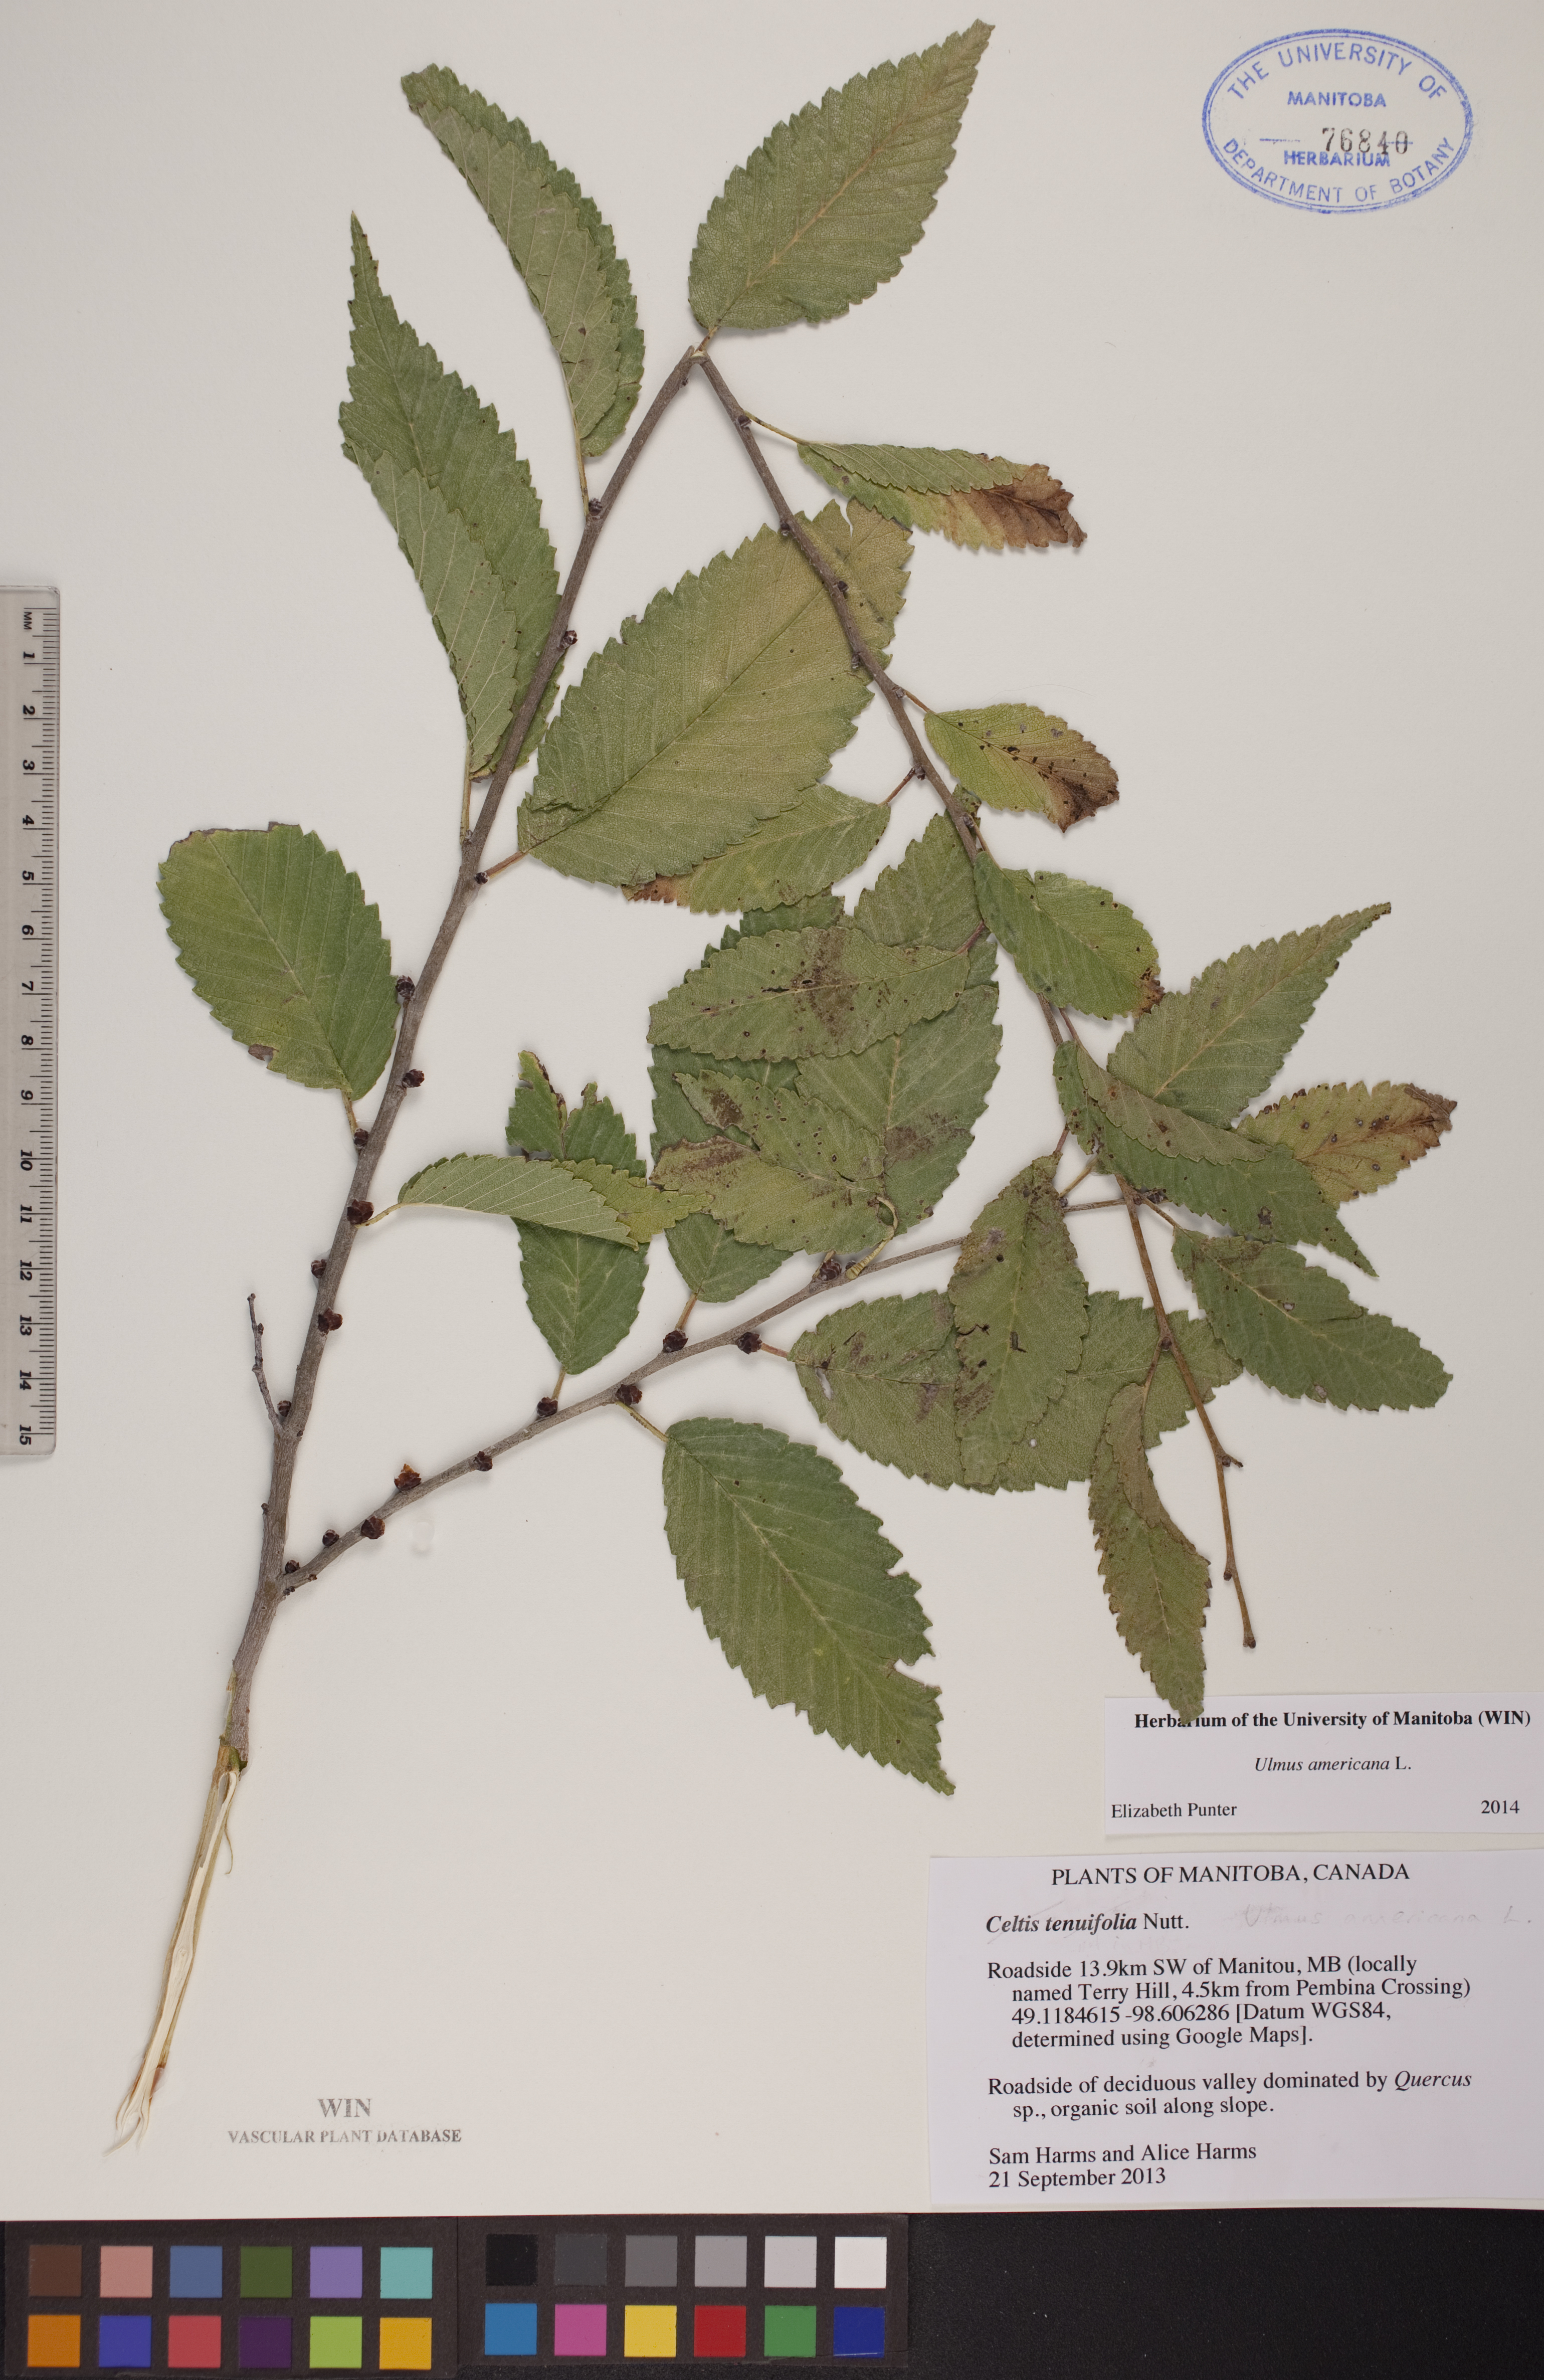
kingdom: Plantae
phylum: Tracheophyta
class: Magnoliopsida
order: Rosales
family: Ulmaceae
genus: Ulmus
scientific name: Ulmus americana
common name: American elm
